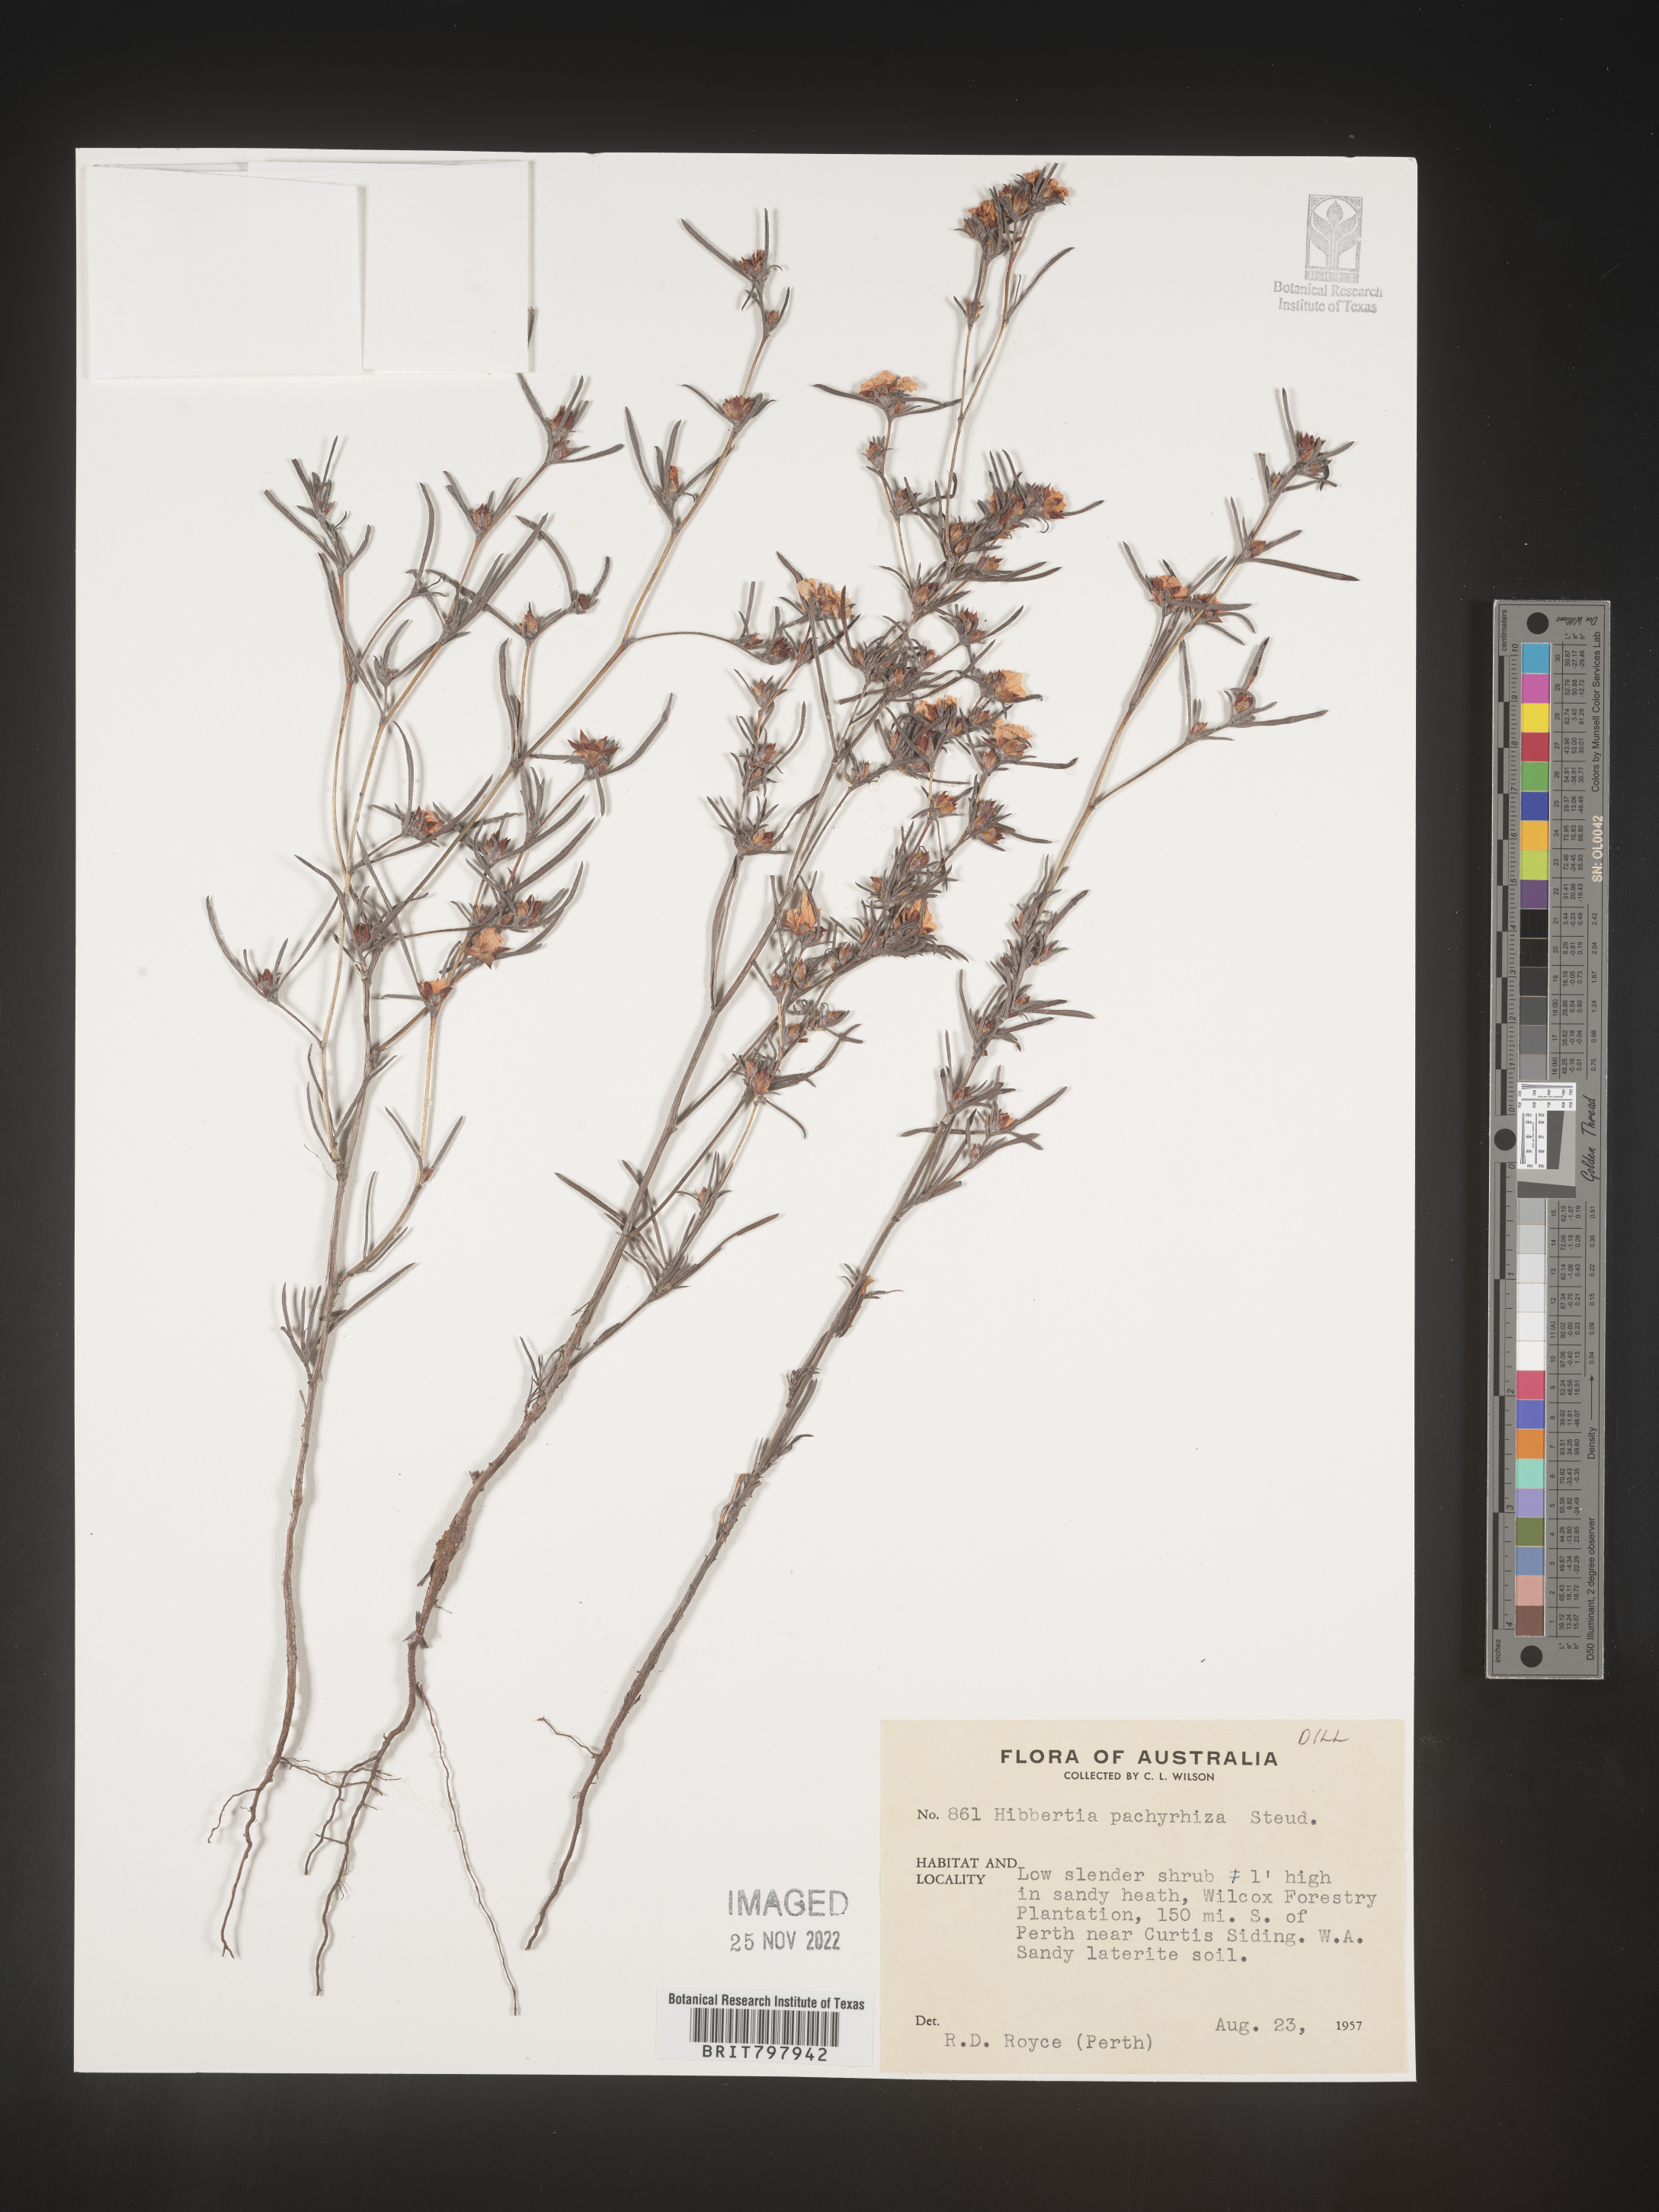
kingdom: Plantae
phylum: Tracheophyta
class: Magnoliopsida
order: Dilleniales
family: Dilleniaceae
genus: Hibbertia
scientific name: Hibbertia
